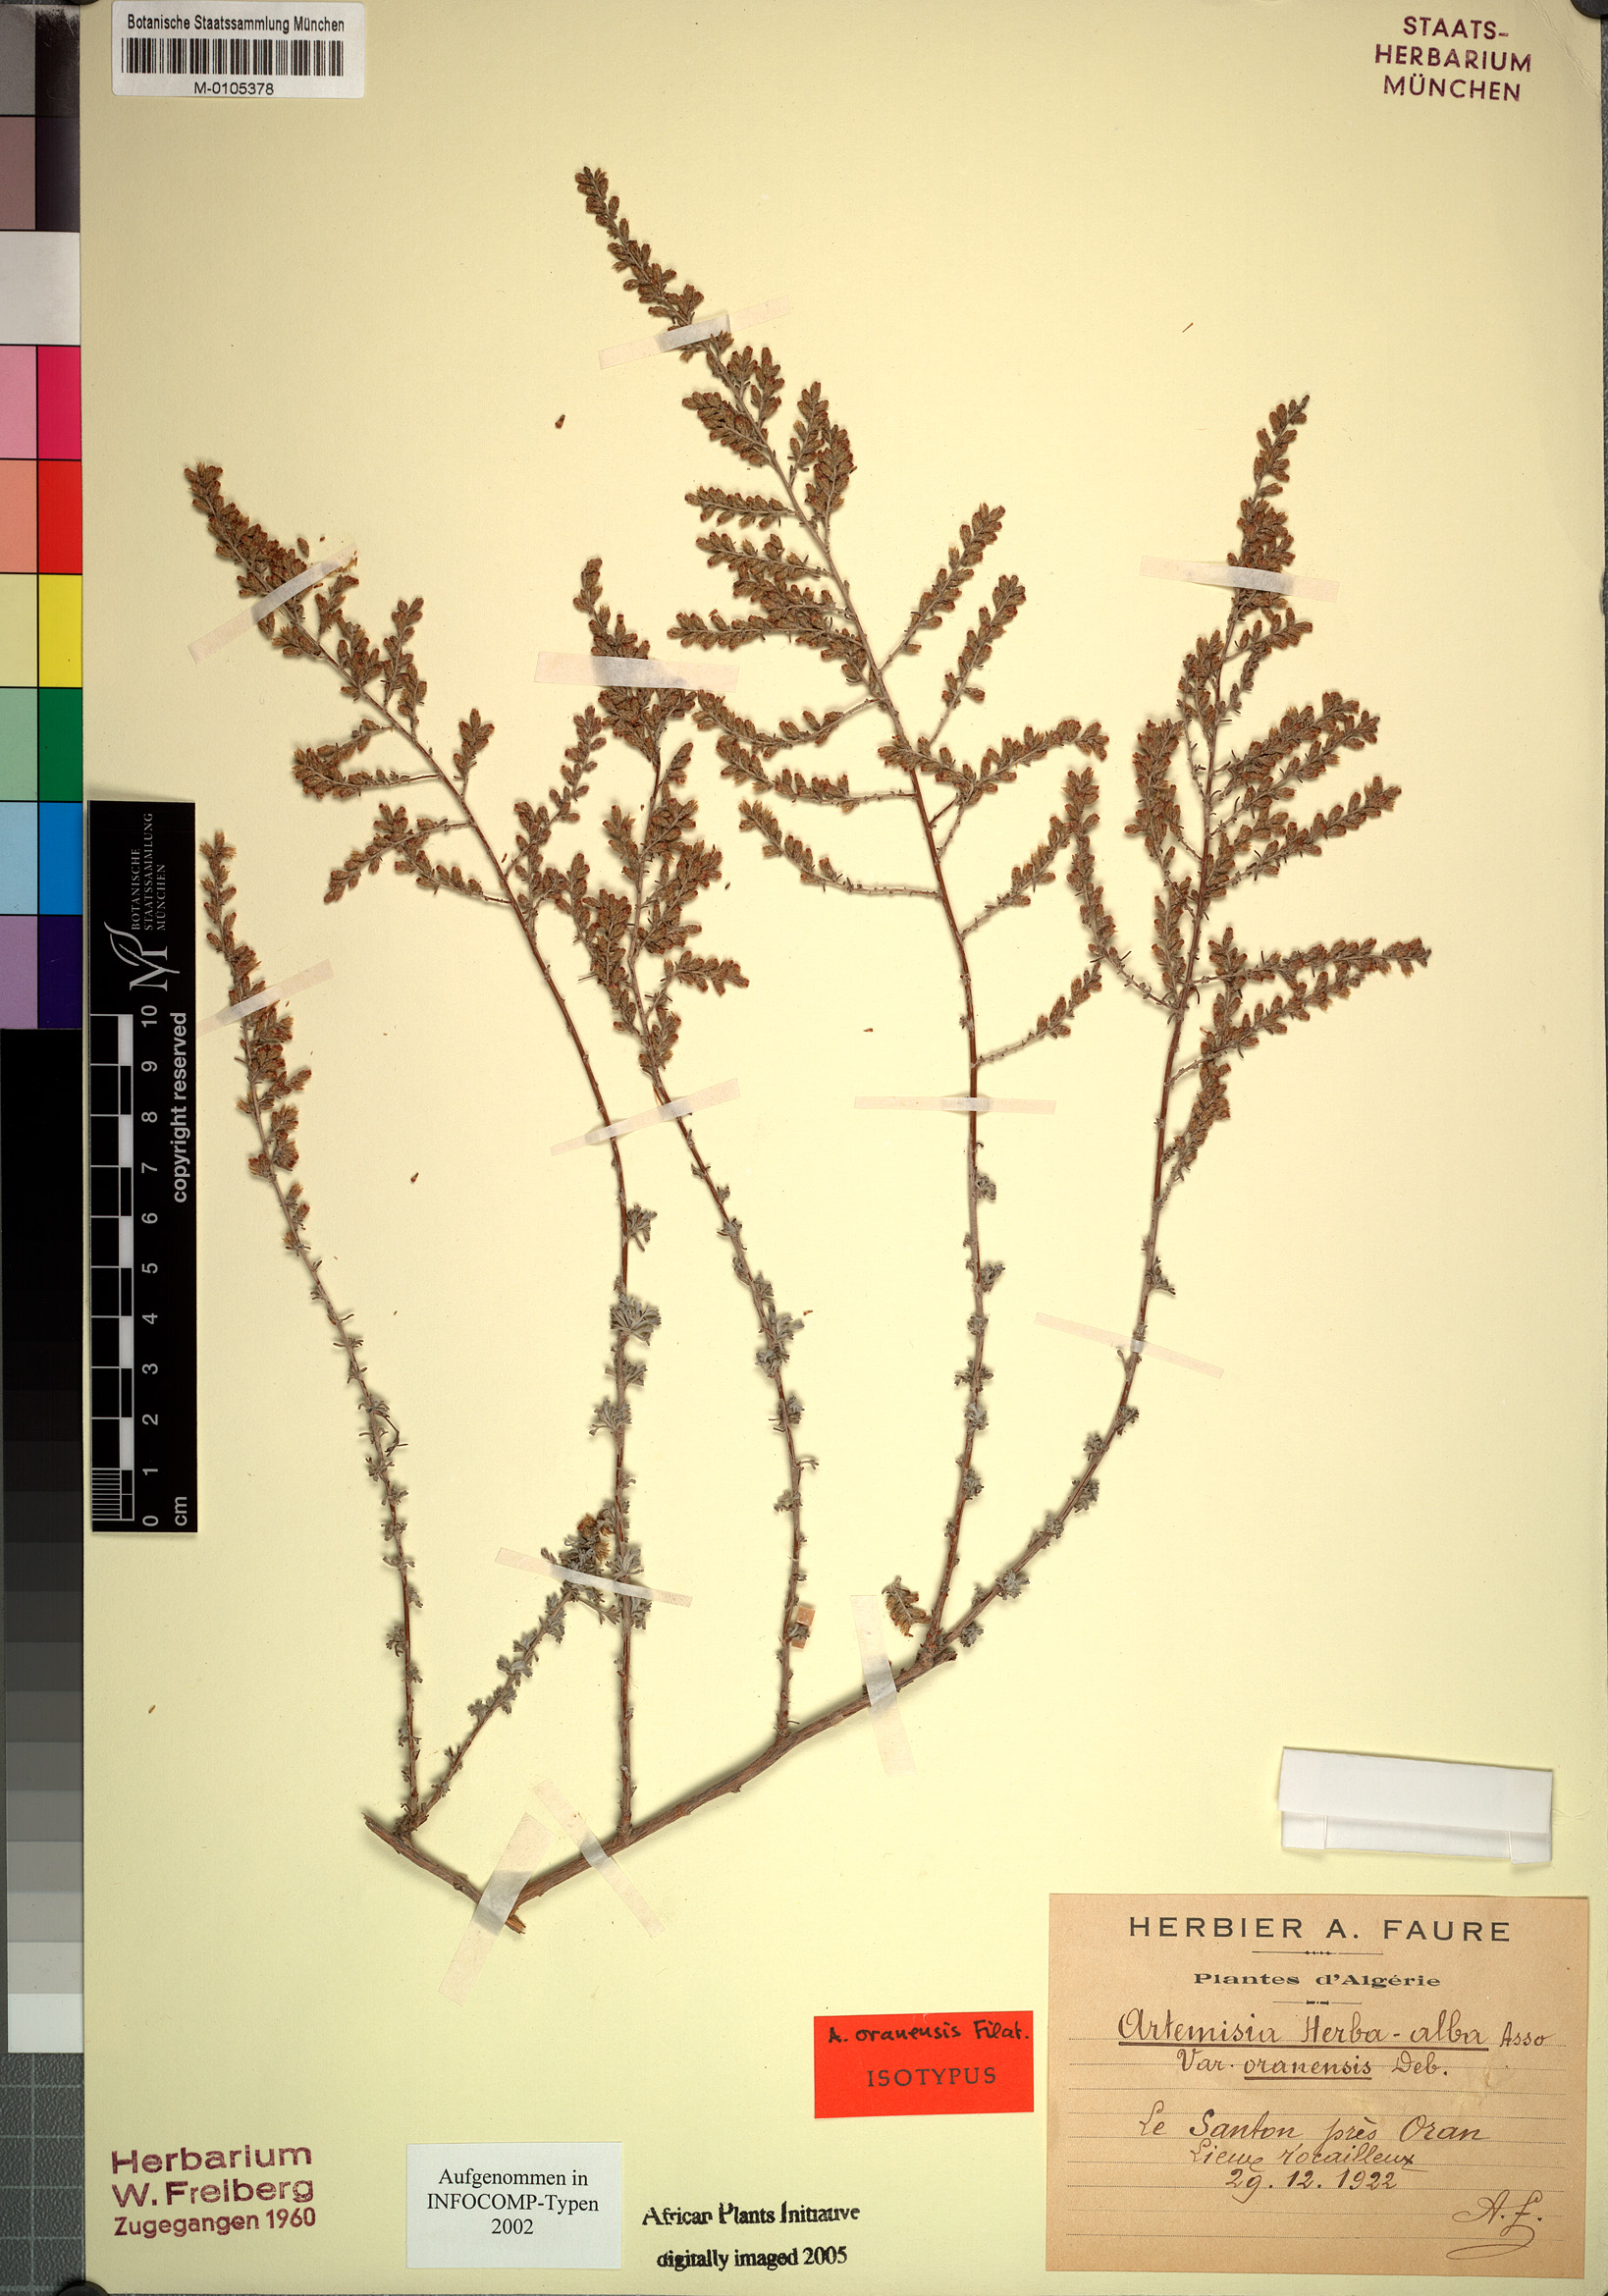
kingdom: Plantae
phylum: Tracheophyta
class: Magnoliopsida
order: Asterales
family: Asteraceae
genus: Artemisia
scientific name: Artemisia oranensis
